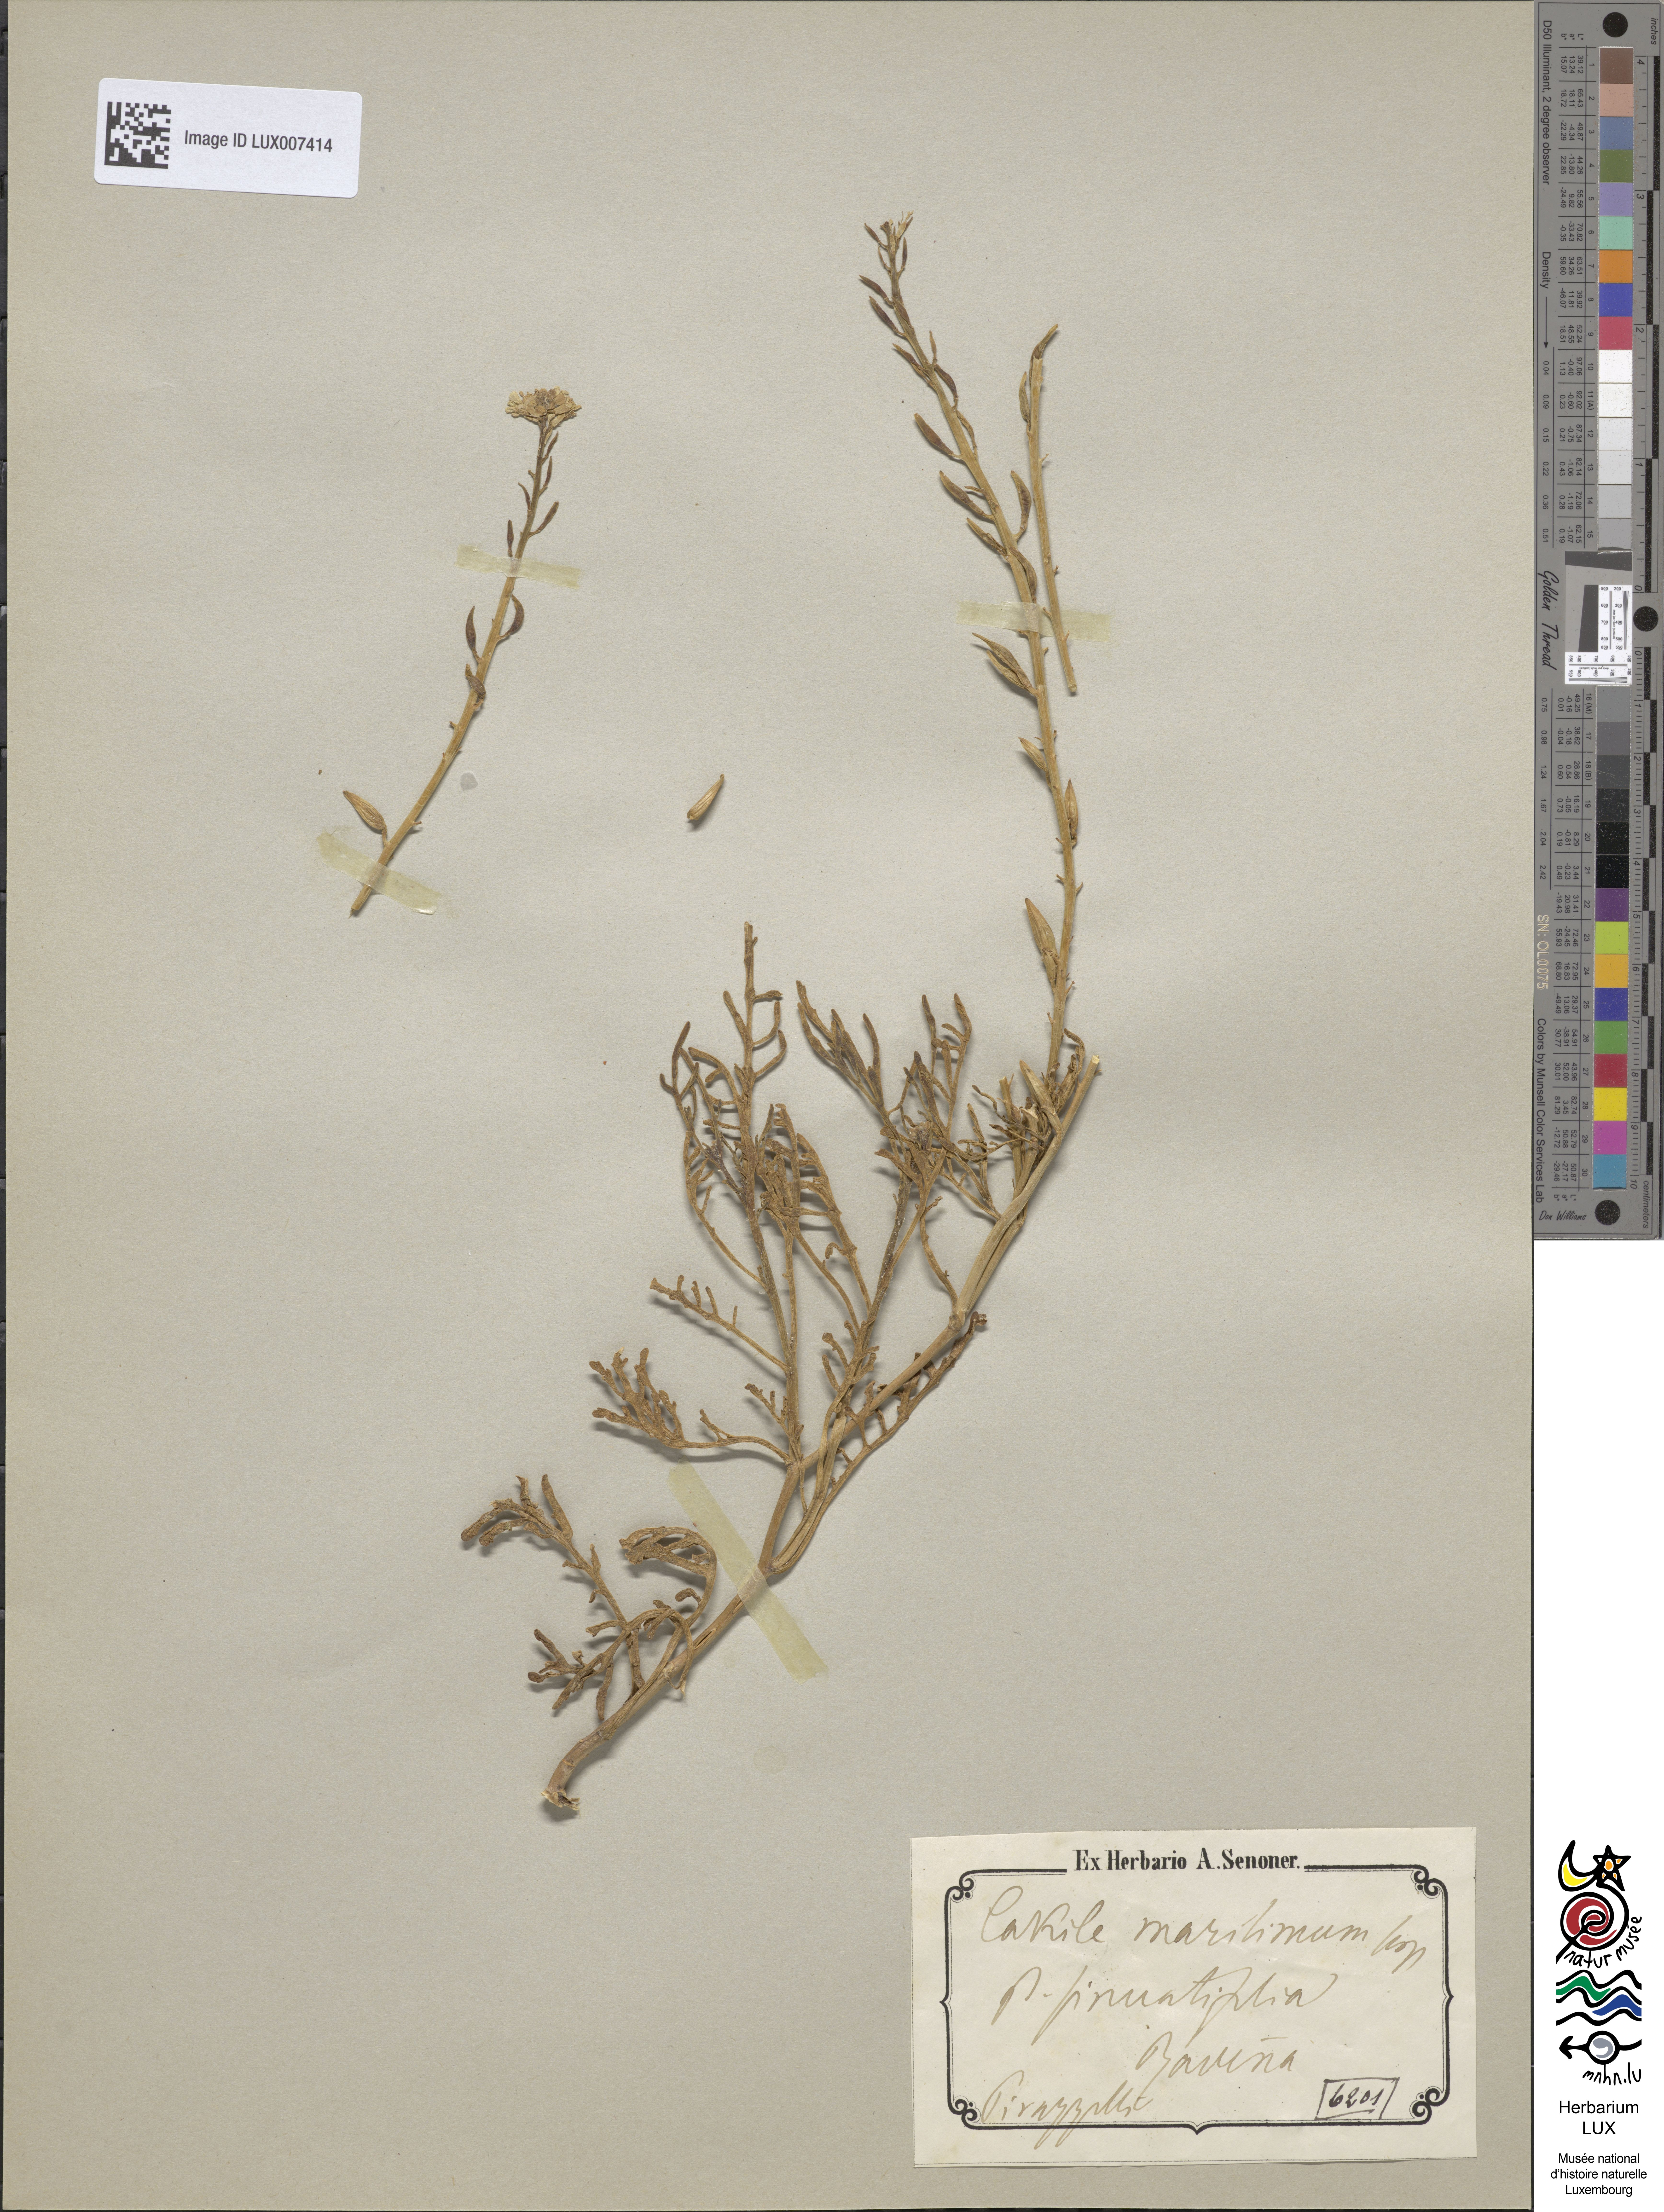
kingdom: Plantae
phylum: Tracheophyta
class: Magnoliopsida
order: Brassicales
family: Brassicaceae
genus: Cakile
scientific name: Cakile maritima
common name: Sea rocket
